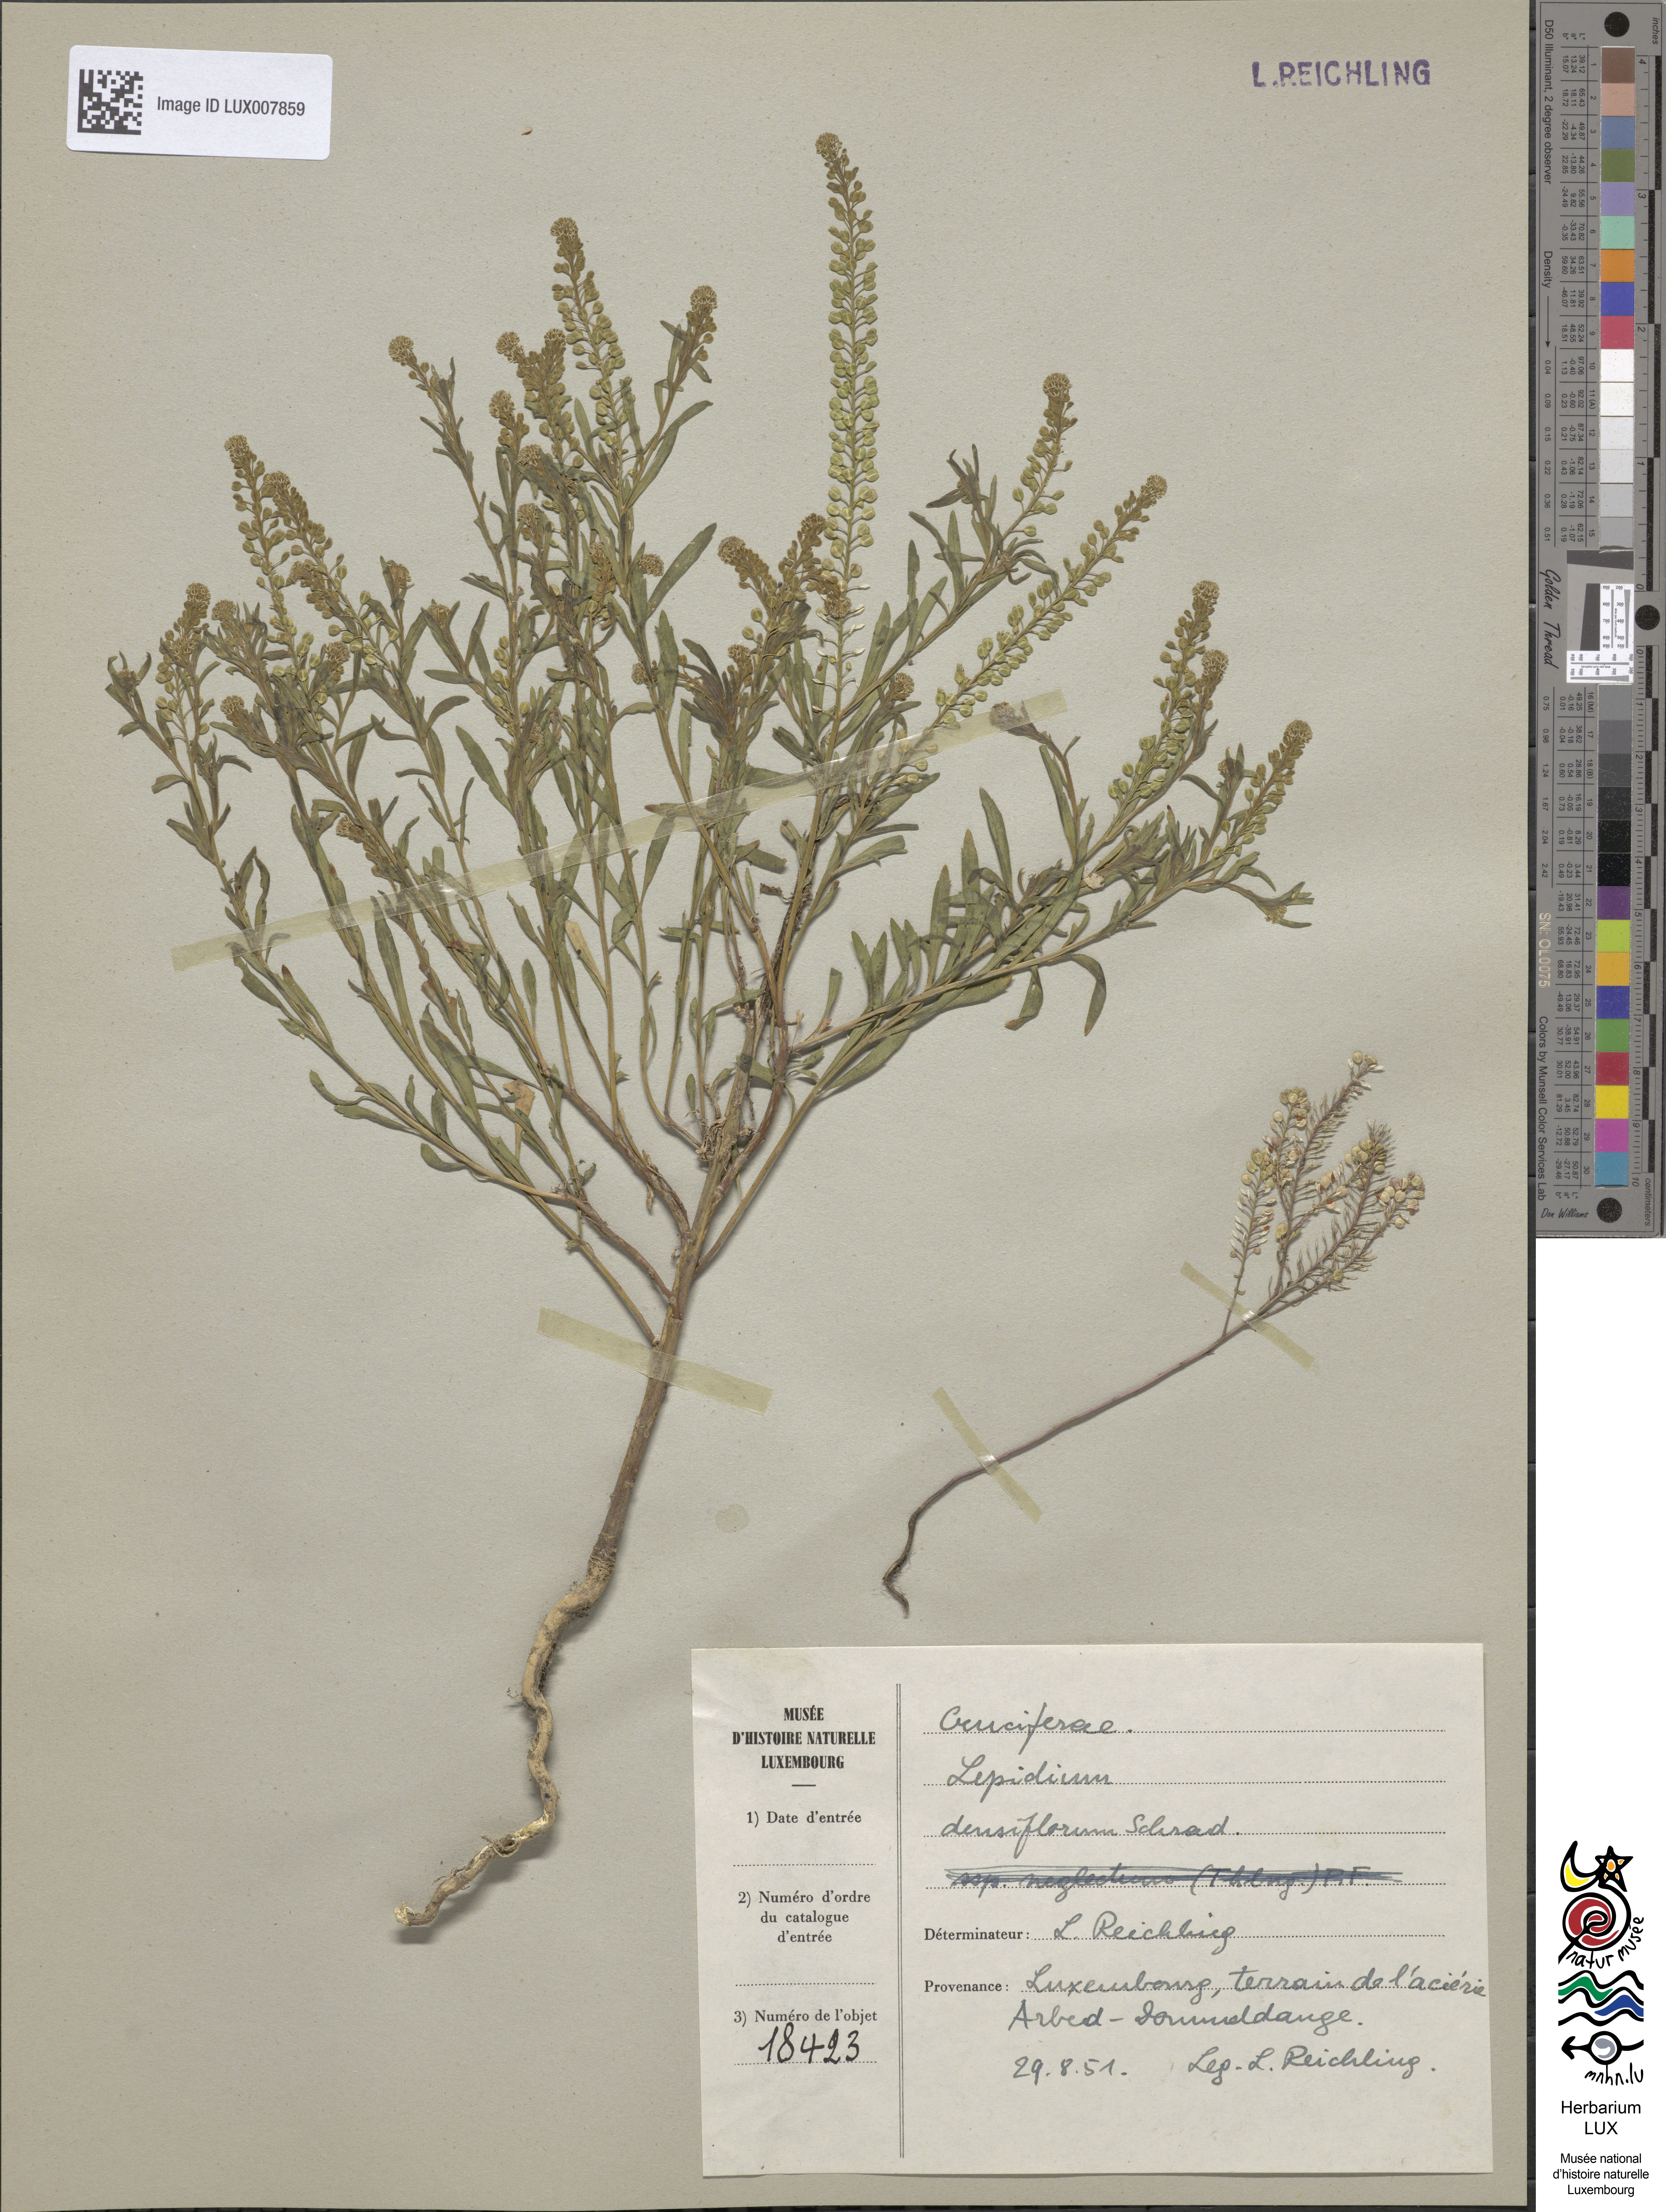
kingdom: Plantae
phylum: Tracheophyta
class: Magnoliopsida
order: Brassicales
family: Brassicaceae
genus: Lepidium
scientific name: Lepidium densiflorum
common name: Miner's pepperwort
